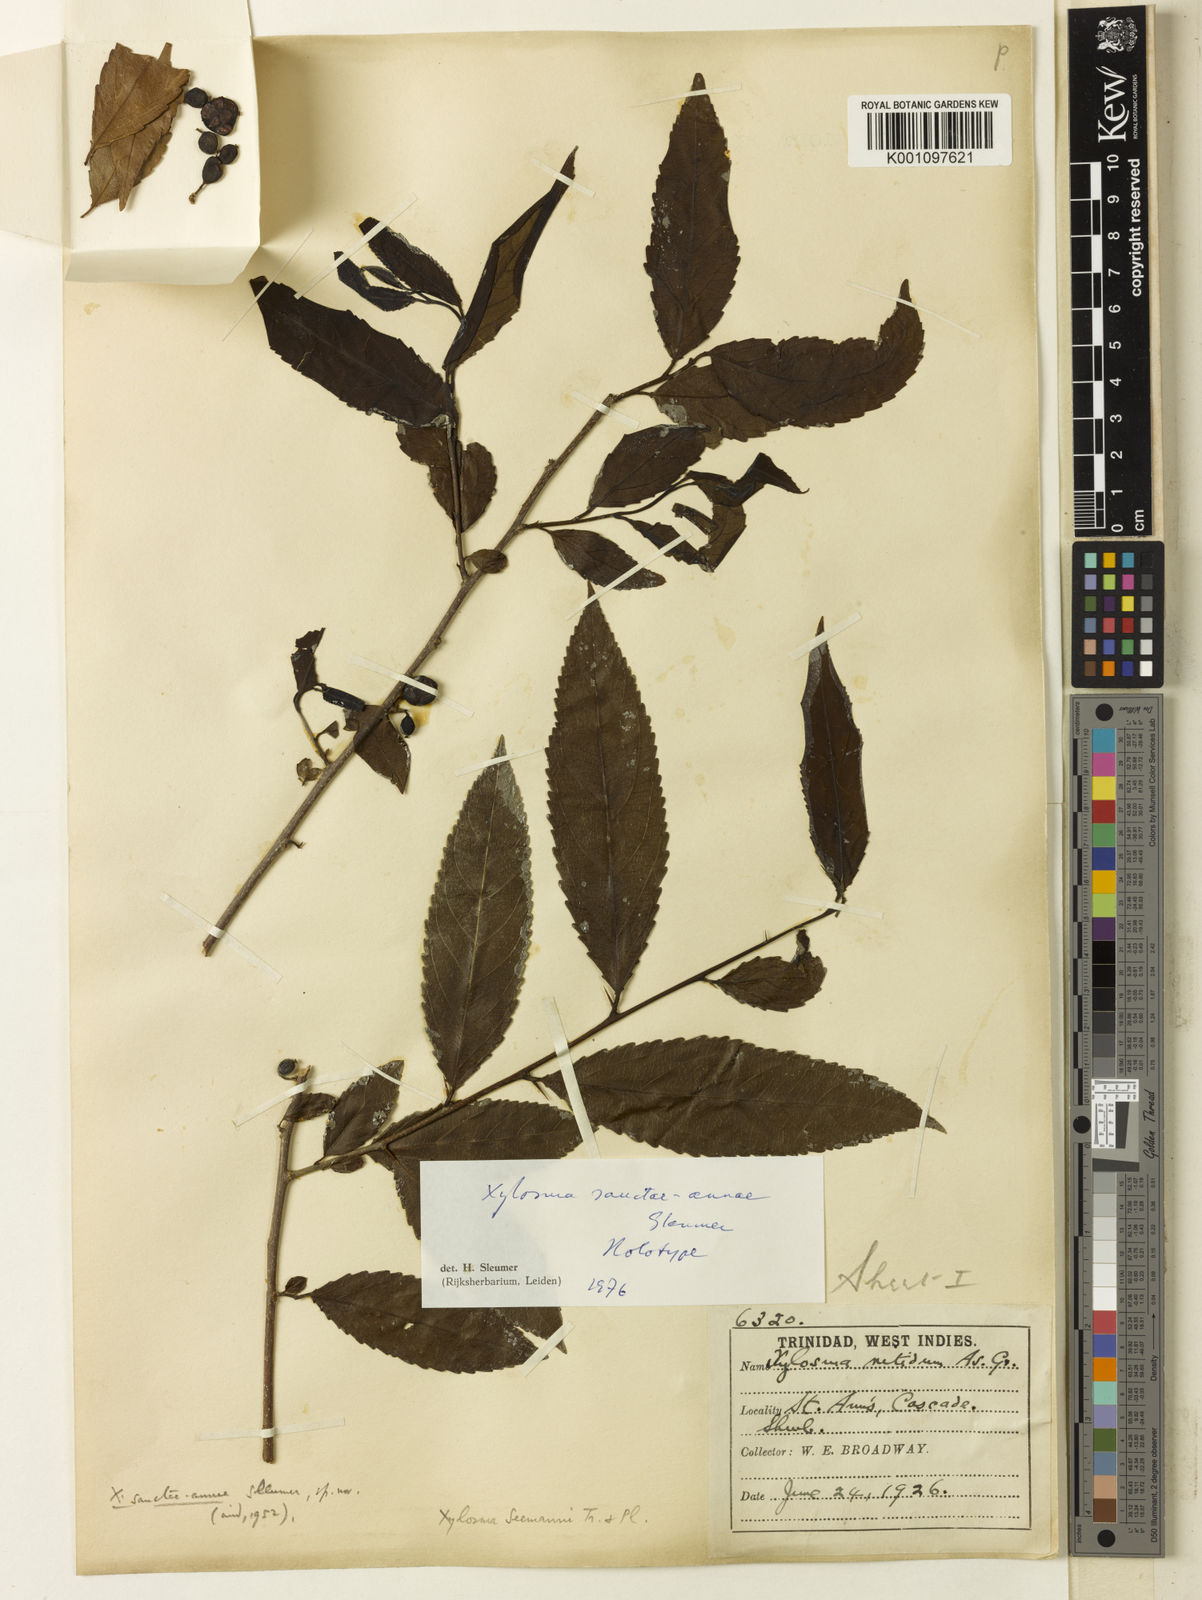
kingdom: Plantae
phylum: Tracheophyta
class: Magnoliopsida
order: Malpighiales
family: Salicaceae
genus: Xylosma
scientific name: Xylosma sanctae-annae
